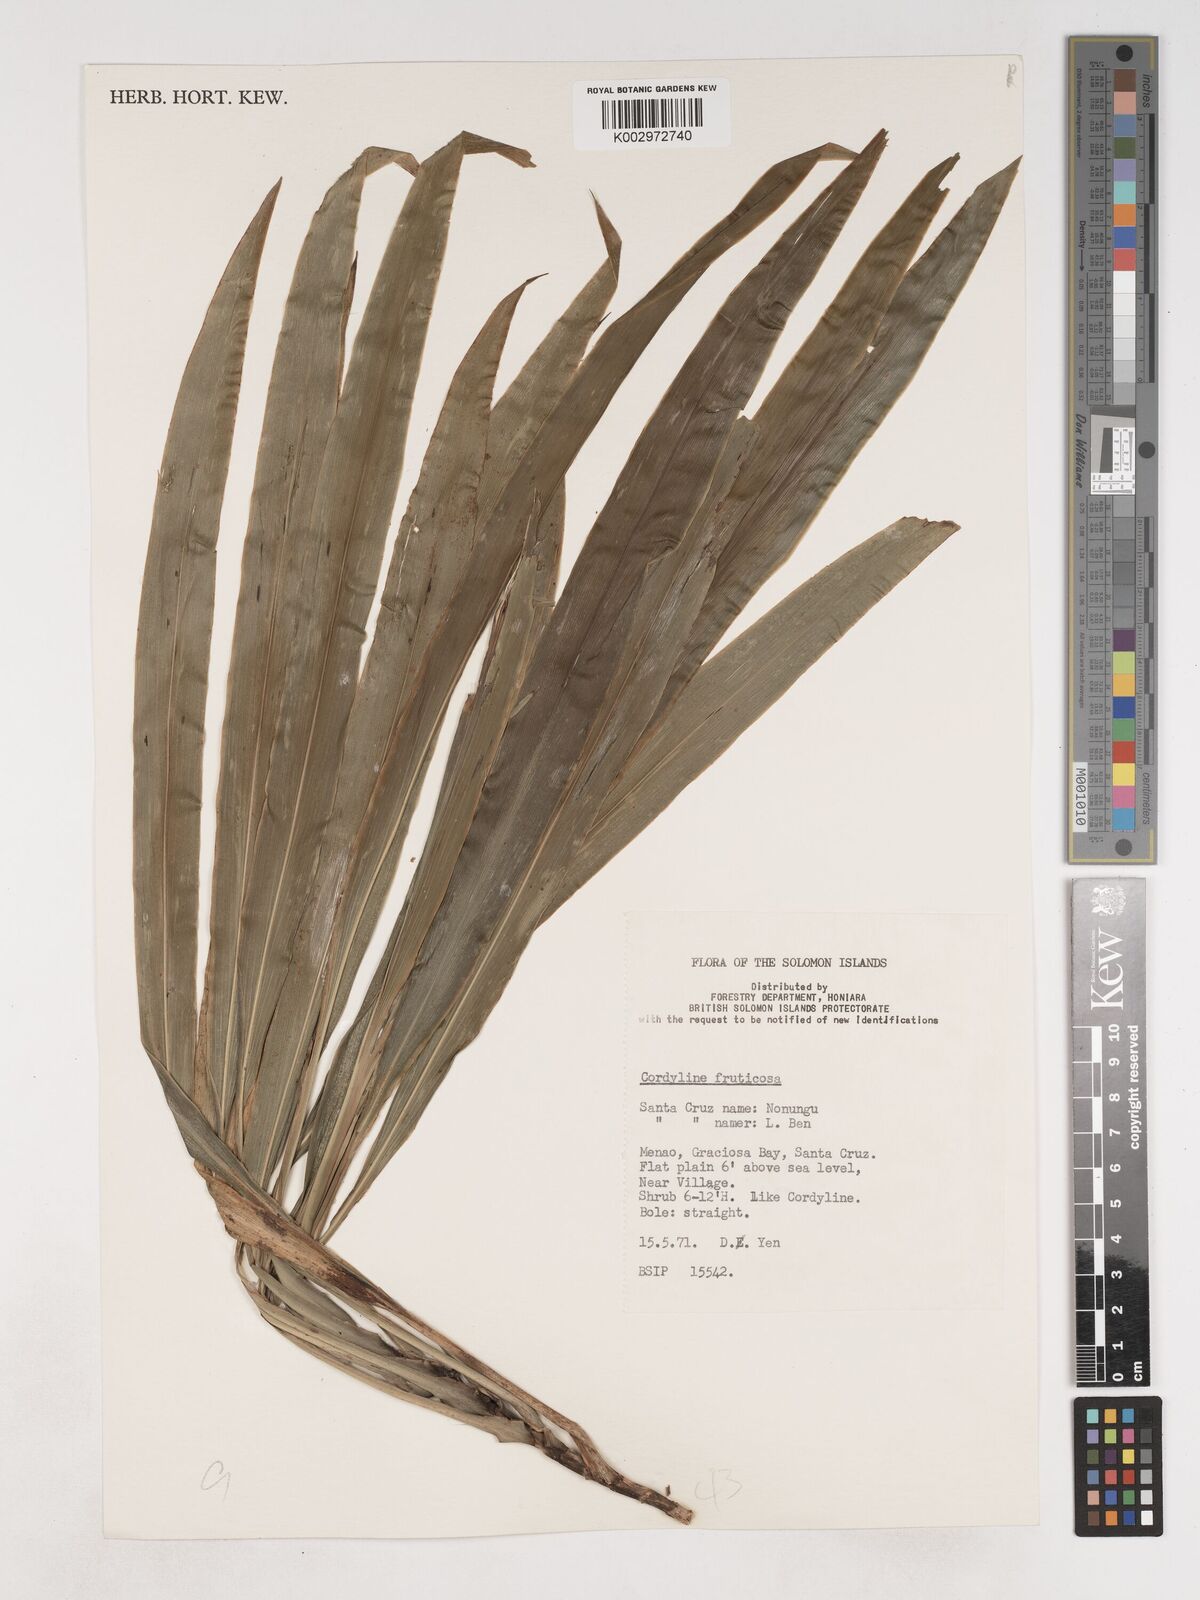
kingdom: Plantae
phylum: Tracheophyta
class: Liliopsida
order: Asparagales
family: Asparagaceae
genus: Cordyline
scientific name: Cordyline fruticosa
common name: Good-luck-plant
